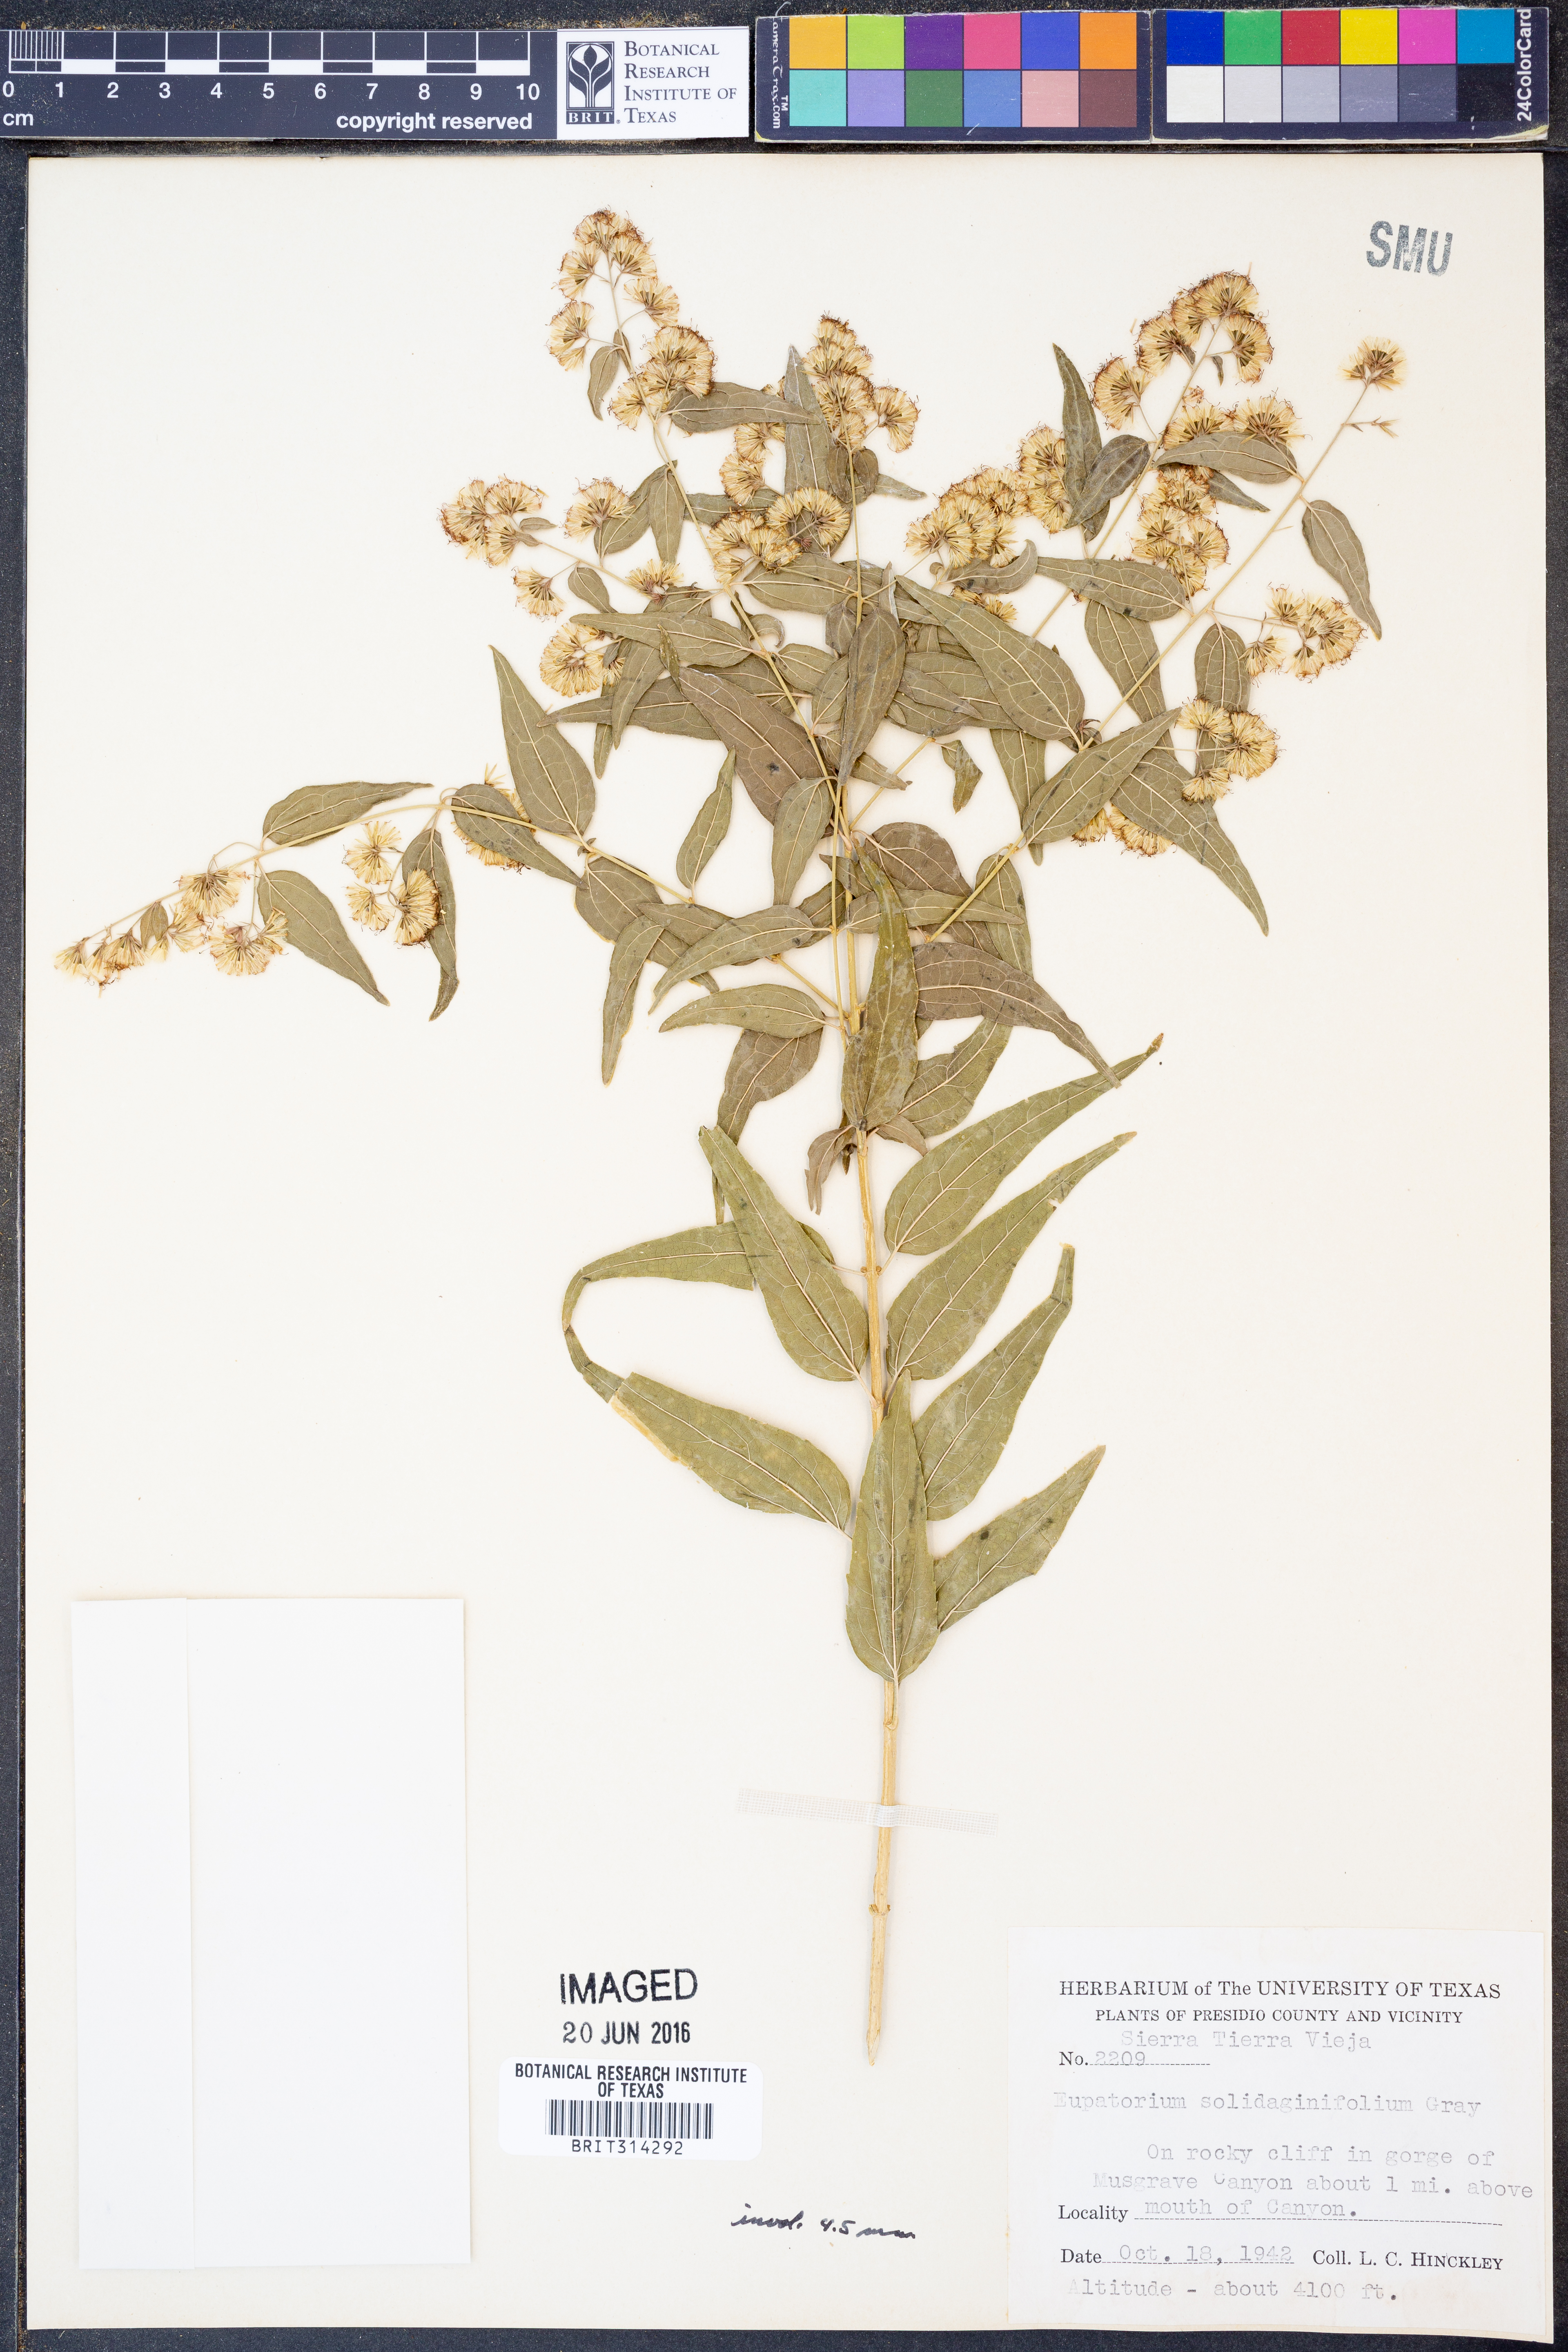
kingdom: Plantae
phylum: Tracheophyta
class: Magnoliopsida
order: Asterales
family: Asteraceae
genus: Koanophyllon
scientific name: Koanophyllon solidaginifolium
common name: Shrubby umbrella thoroughwort
